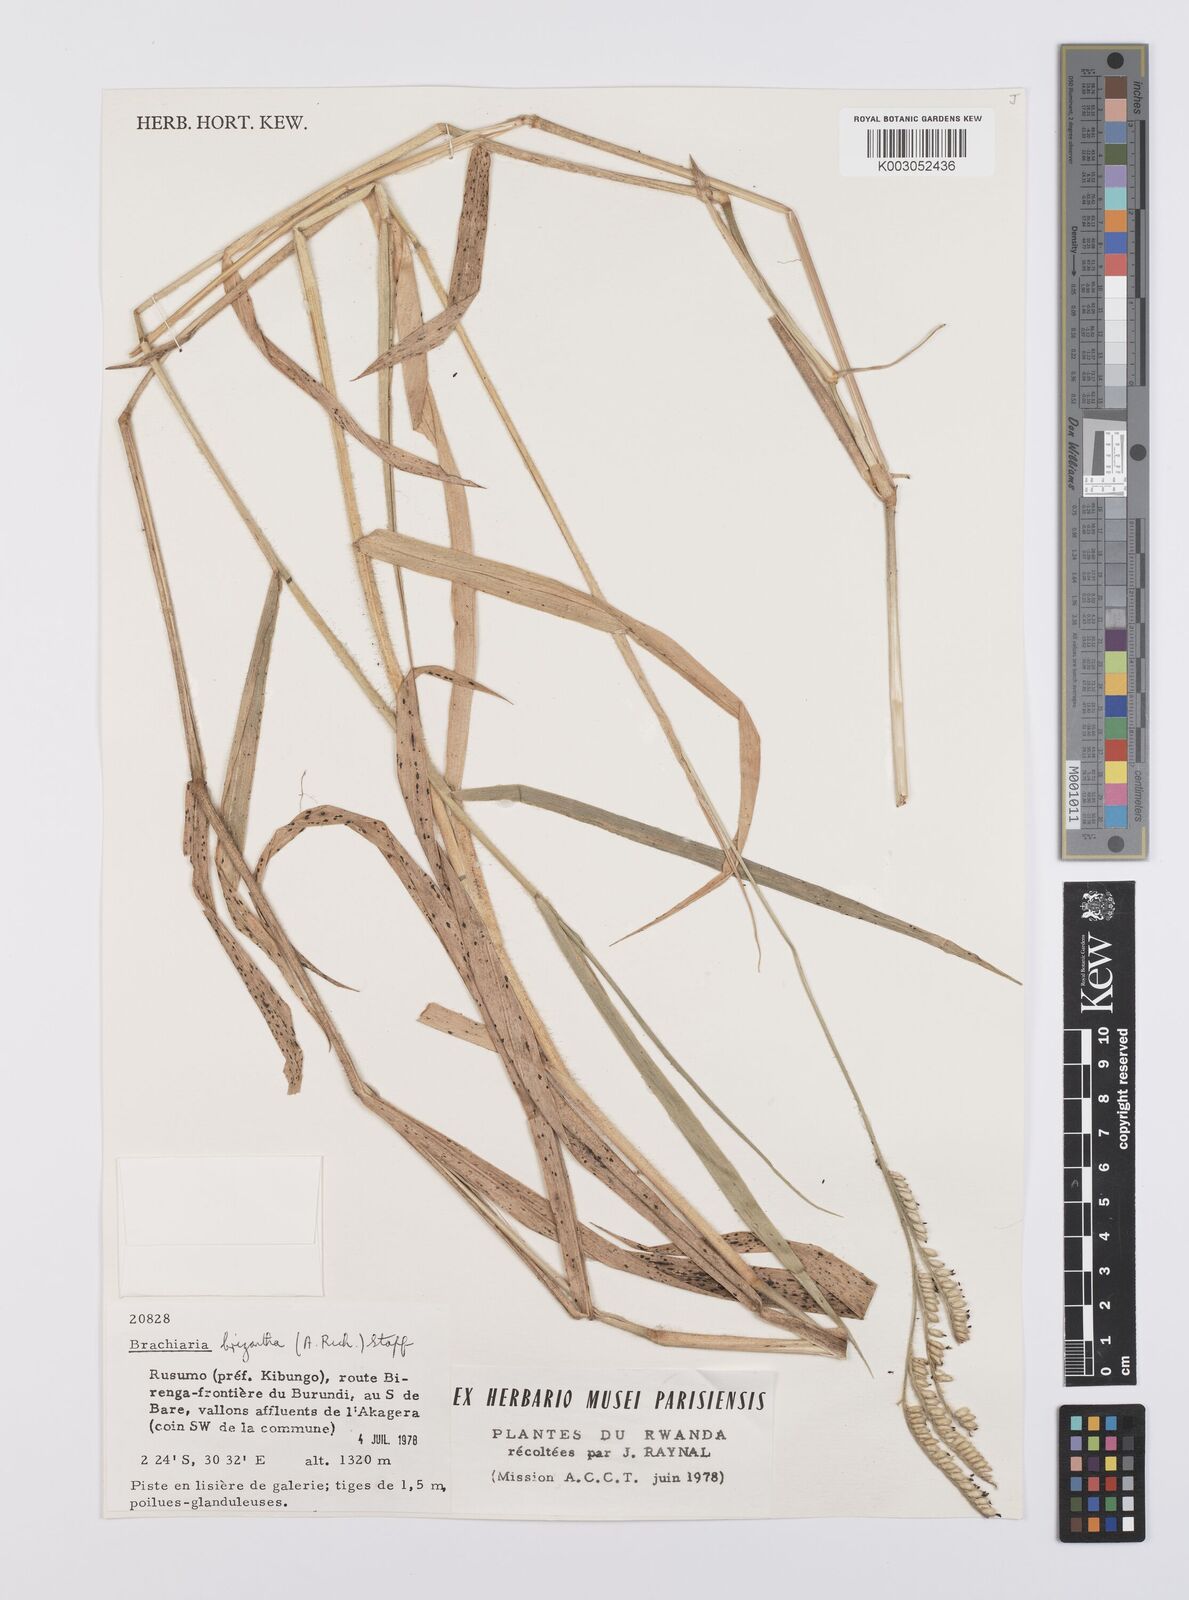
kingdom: Plantae
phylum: Tracheophyta
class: Liliopsida
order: Poales
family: Poaceae
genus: Urochloa
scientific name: Urochloa brizantha
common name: Palisade signalgrass
